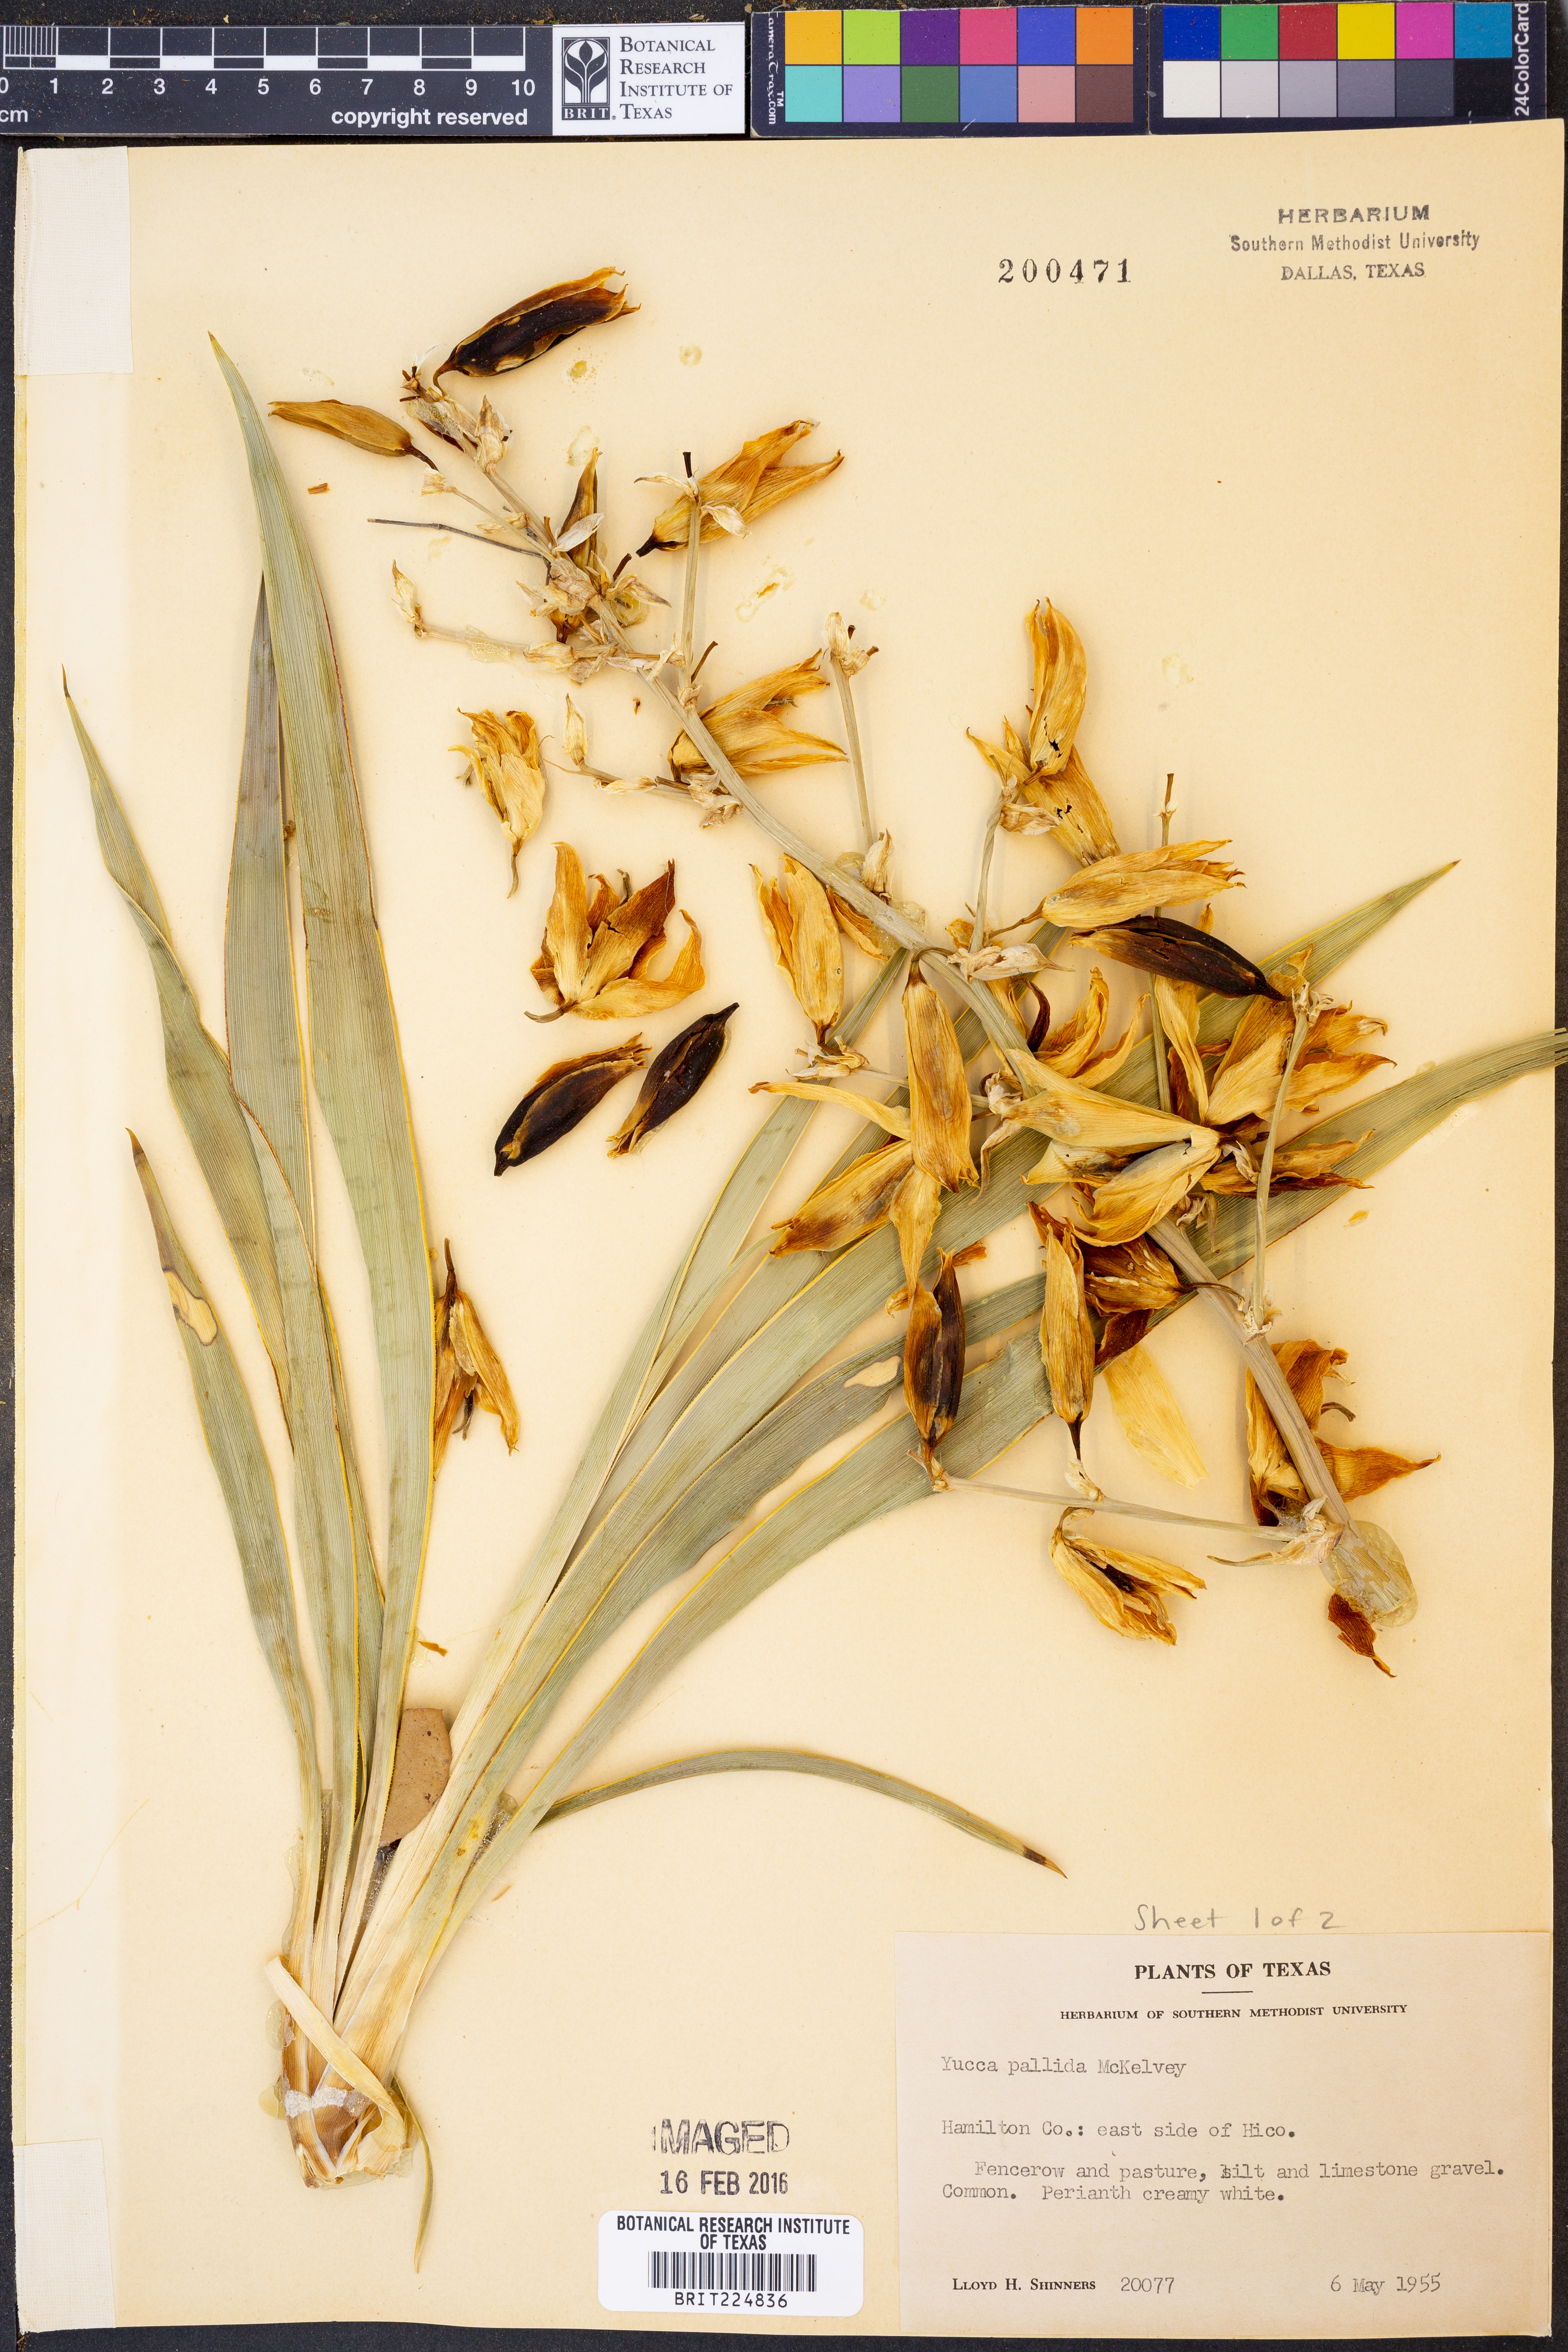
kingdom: Plantae
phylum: Tracheophyta
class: Liliopsida
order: Asparagales
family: Asparagaceae
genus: Yucca
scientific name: Yucca pallida
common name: Pale leaf yucca
